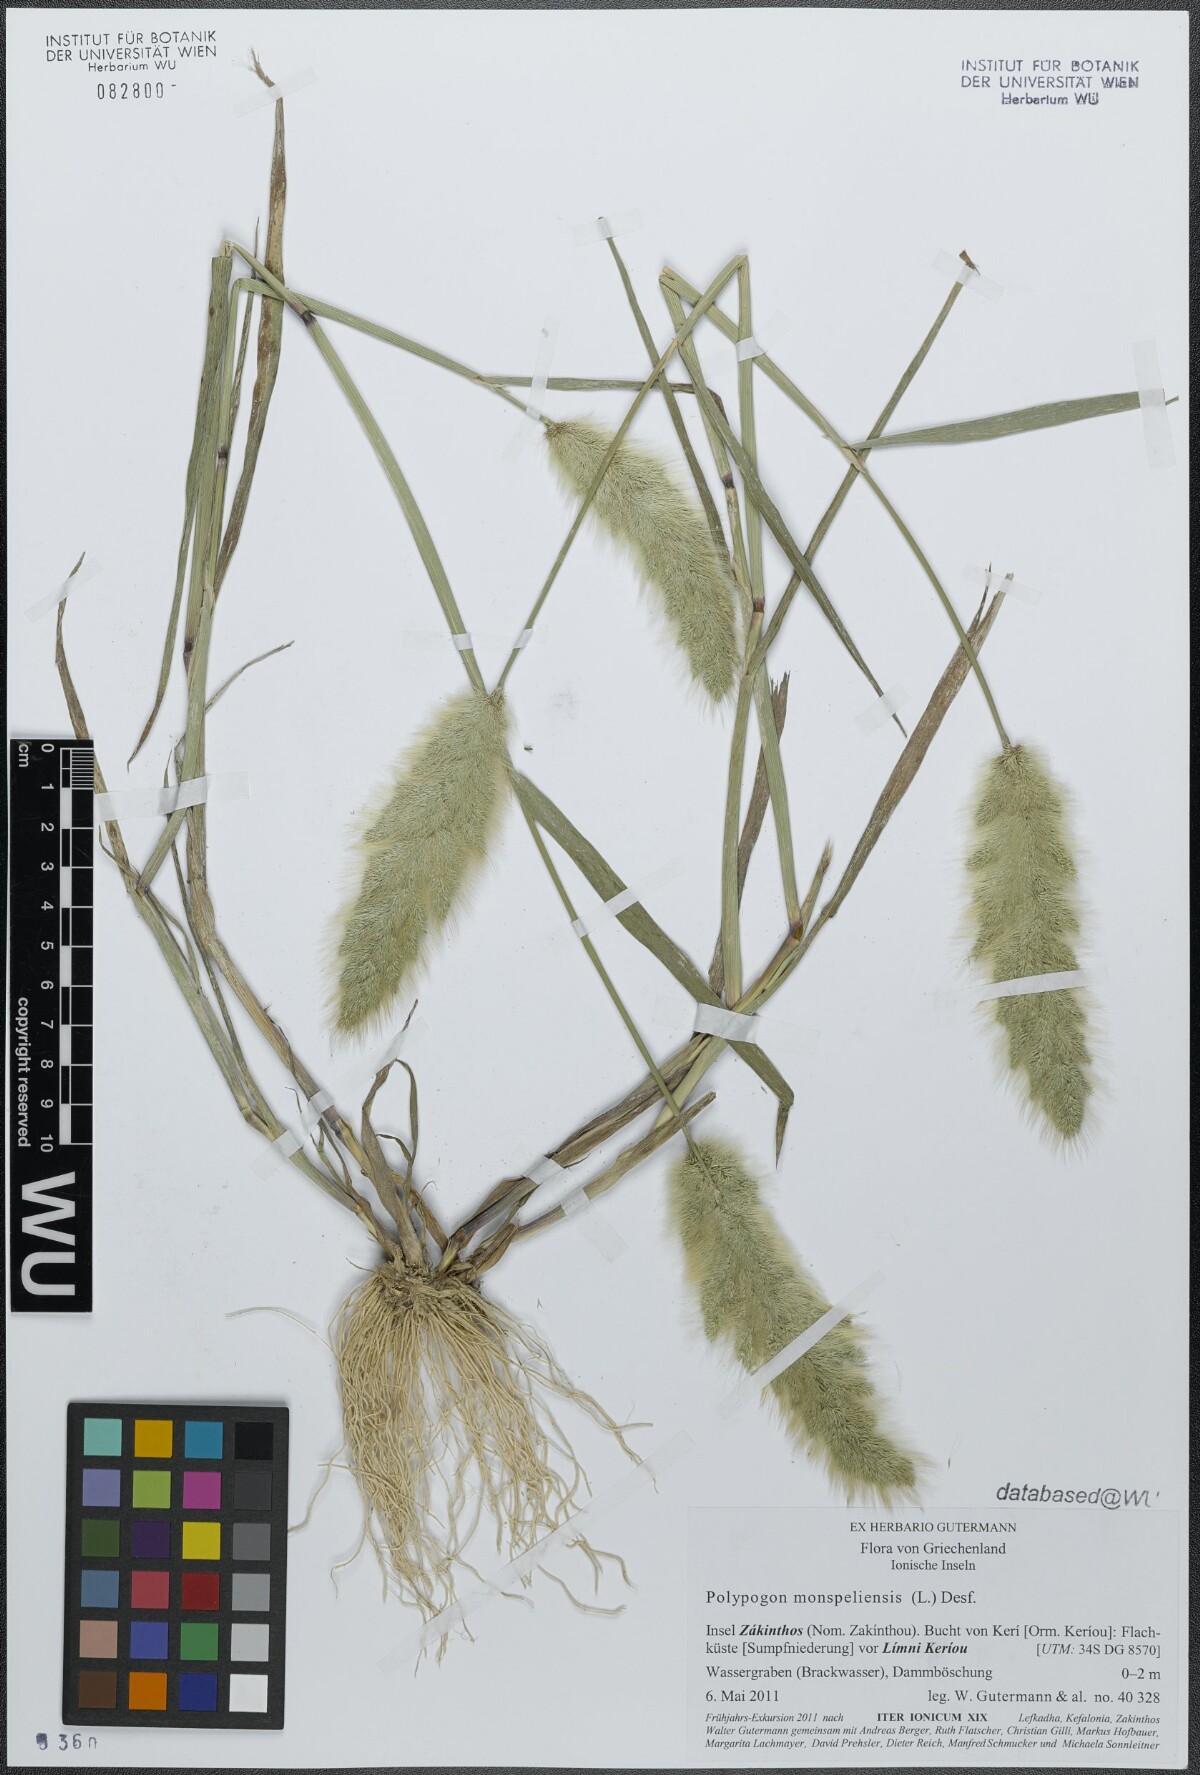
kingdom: Plantae
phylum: Tracheophyta
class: Liliopsida
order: Poales
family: Poaceae
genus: Polypogon
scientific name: Polypogon monspeliensis
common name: Annual rabbitsfoot grass
